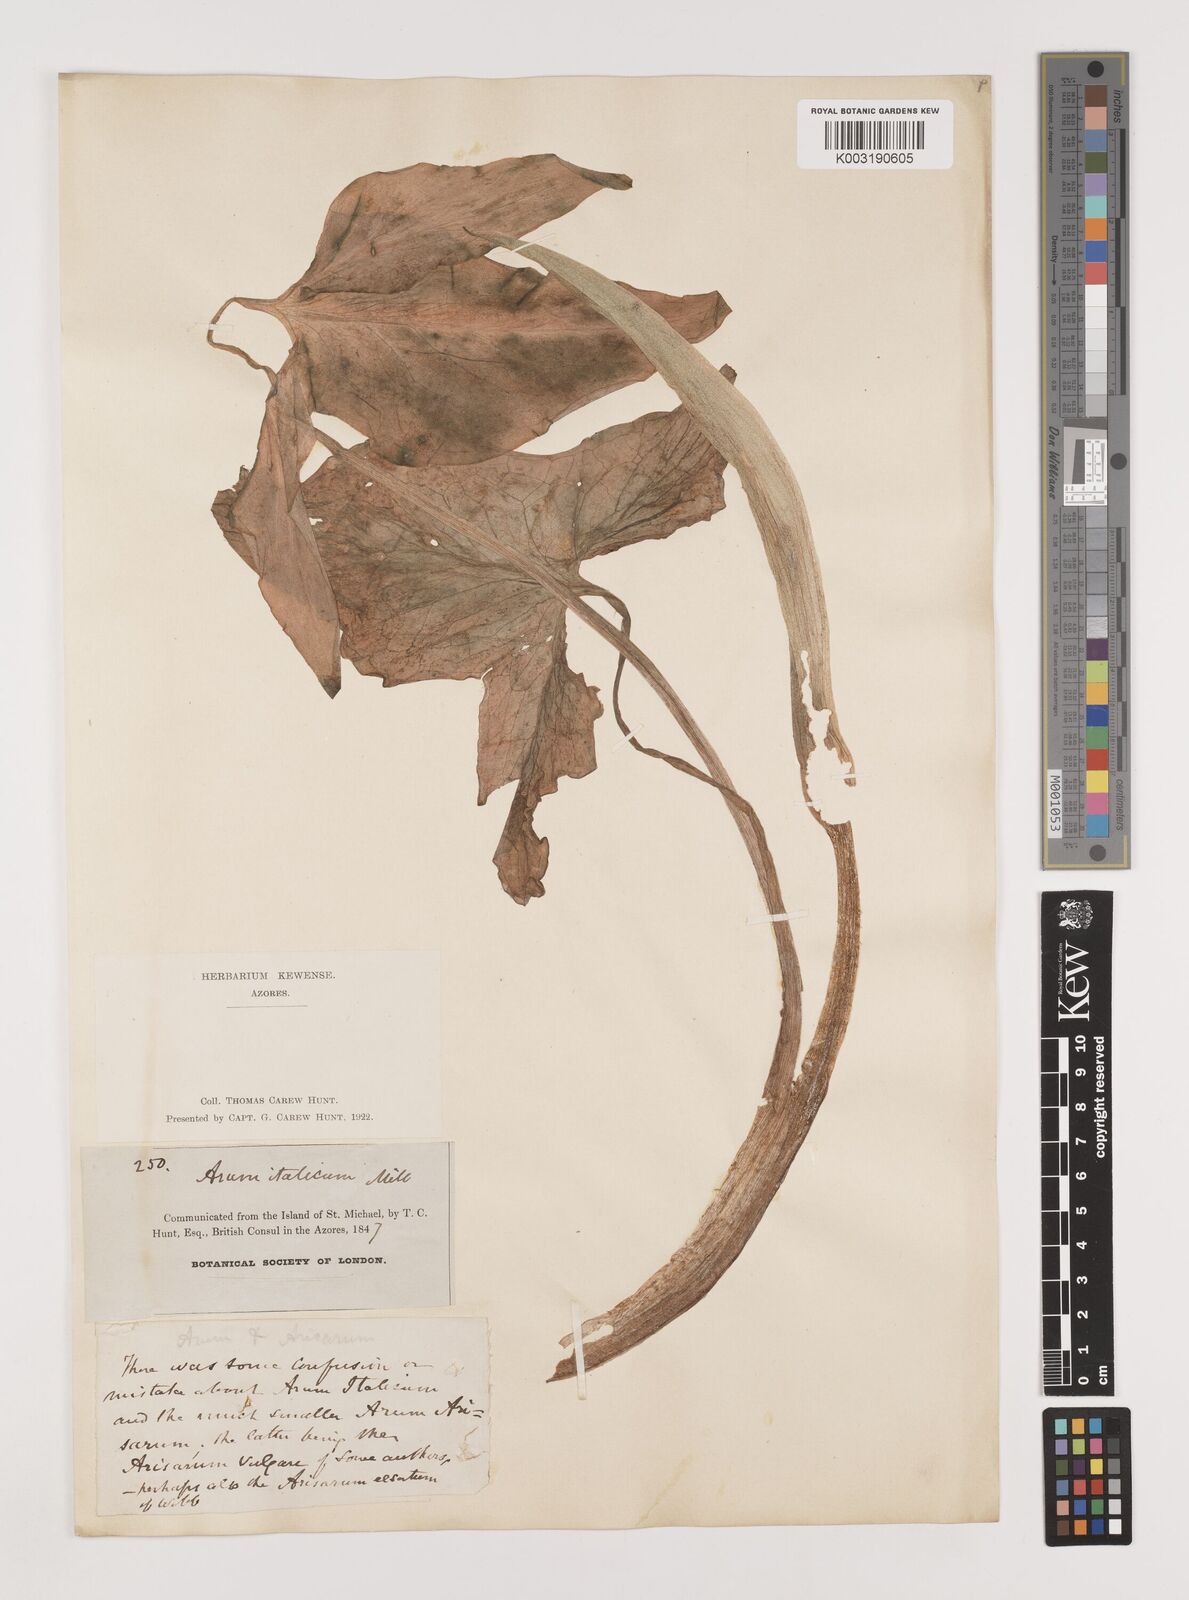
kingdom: Plantae
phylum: Tracheophyta
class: Liliopsida
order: Alismatales
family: Araceae
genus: Arum
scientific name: Arum italicum
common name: Italian lords-and-ladies
